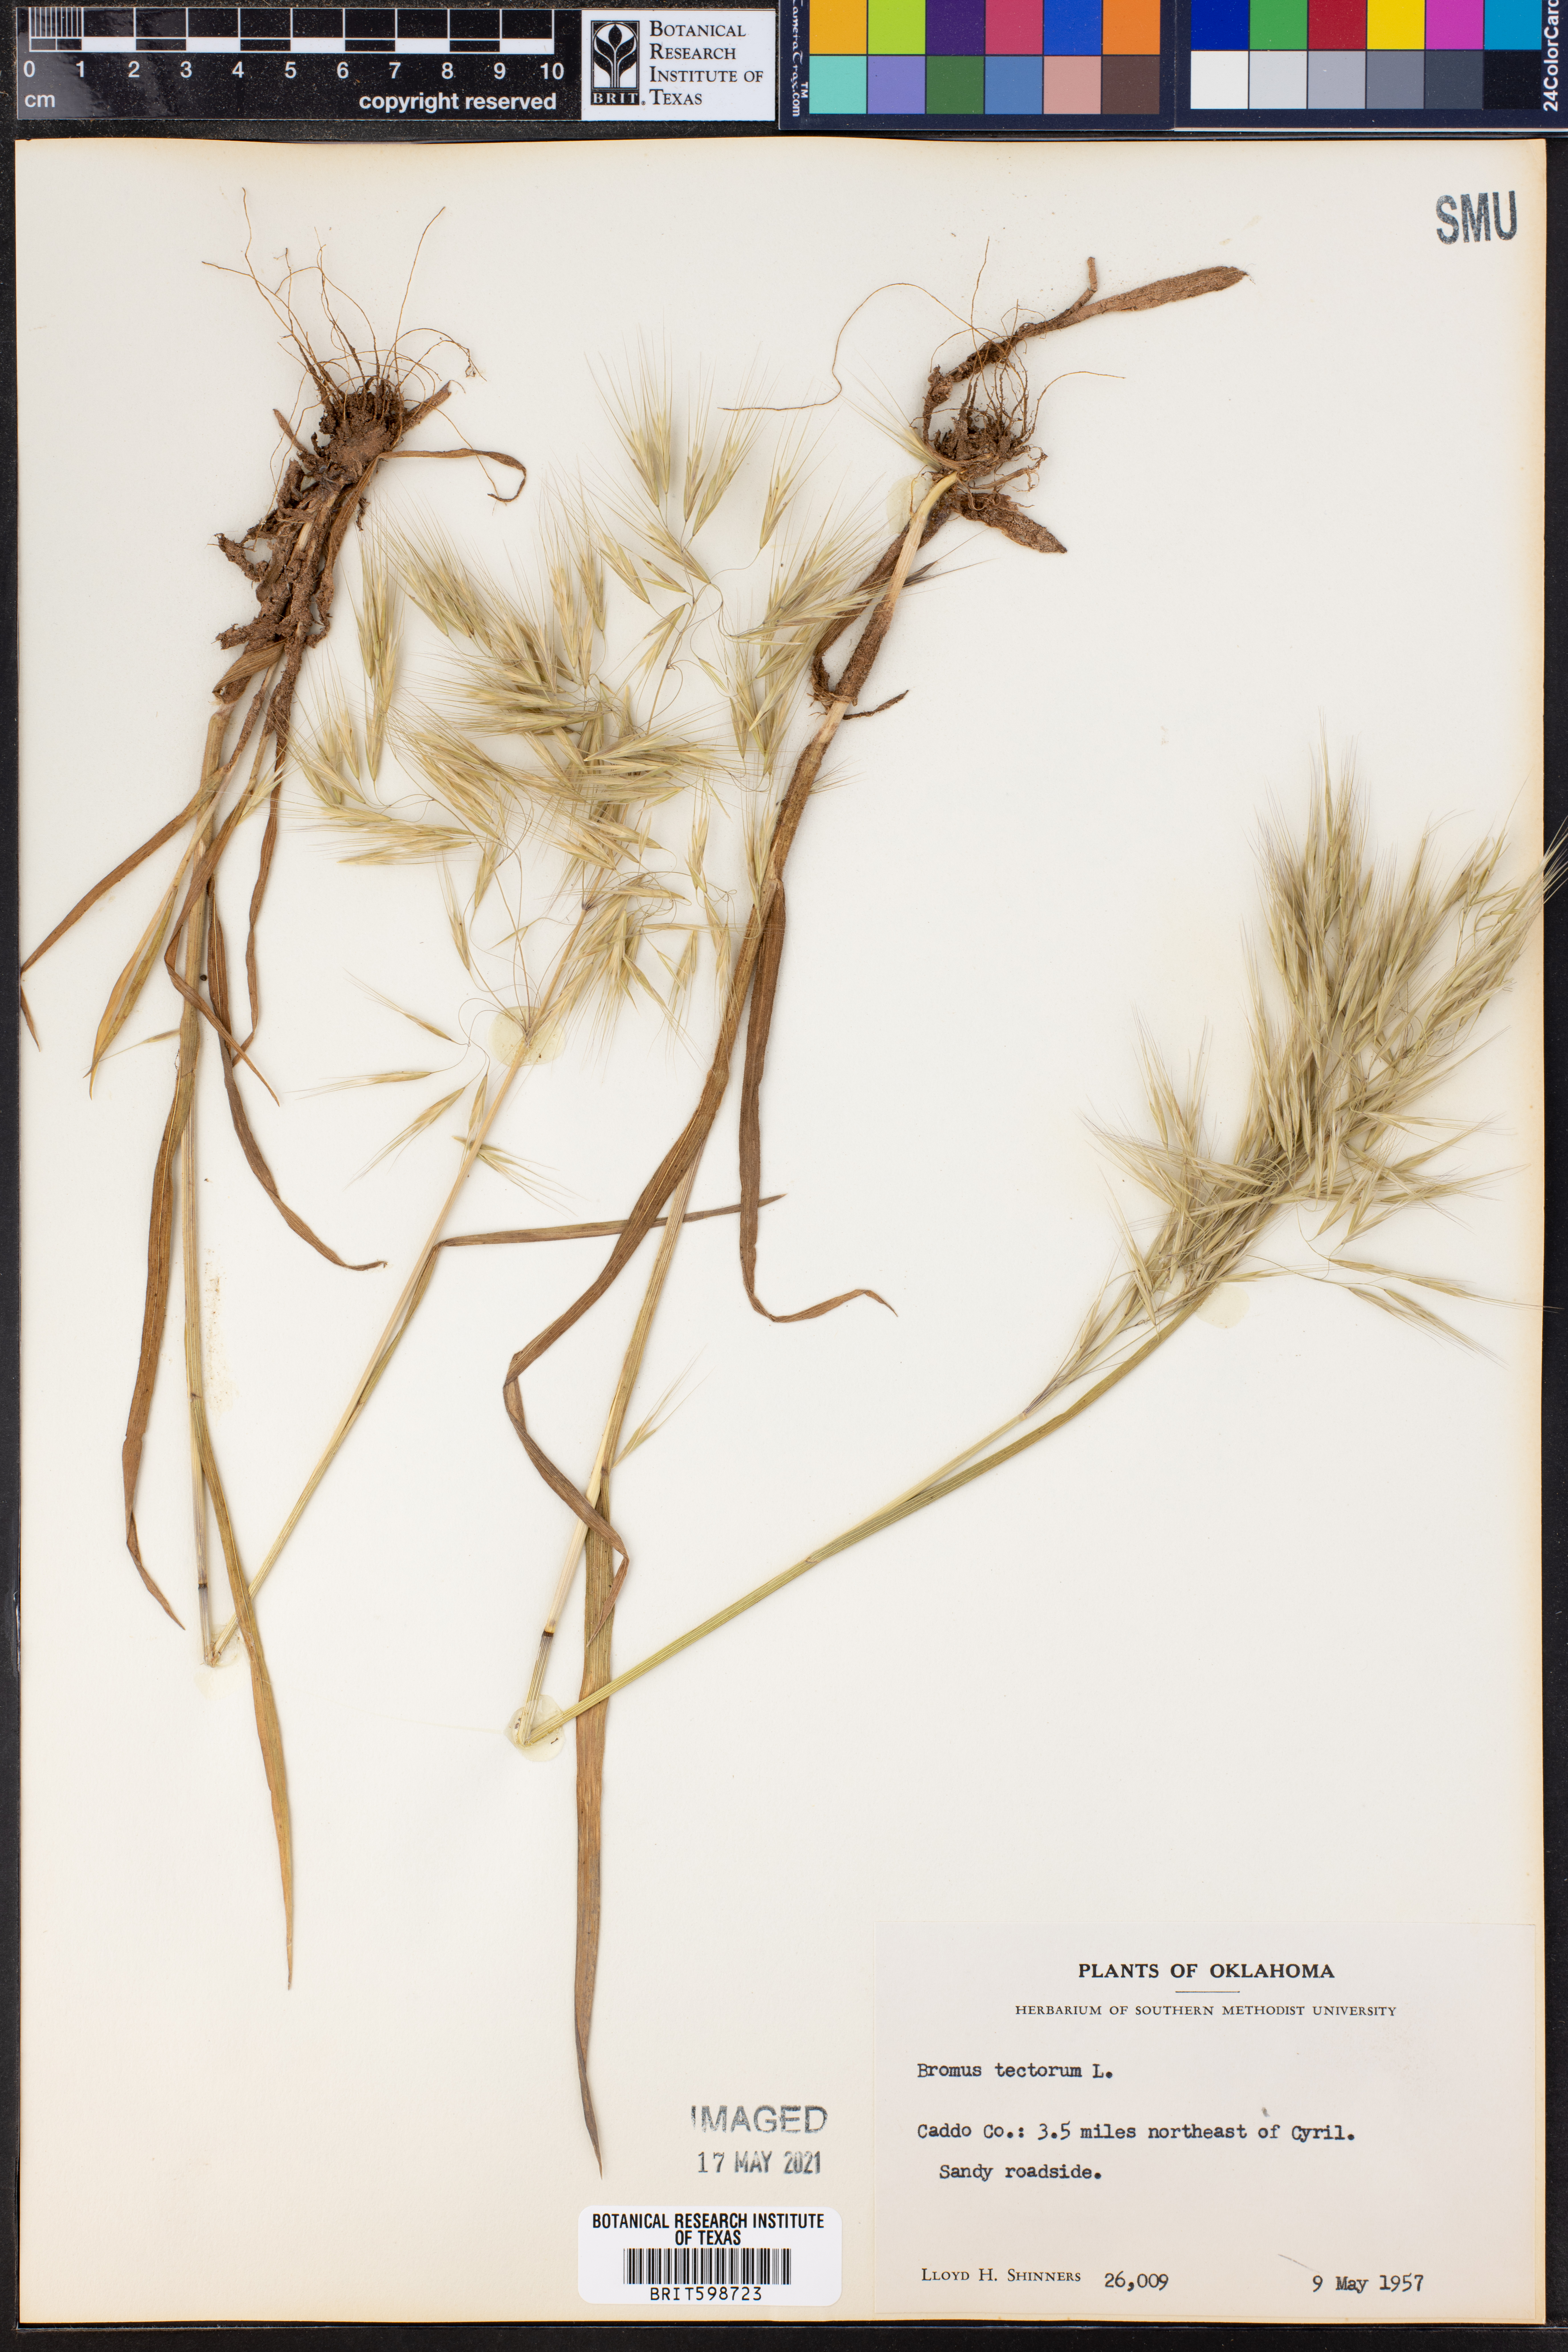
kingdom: Plantae
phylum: Tracheophyta
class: Liliopsida
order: Poales
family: Poaceae
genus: Bromus
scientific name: Bromus tectorum
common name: Cheatgrass
